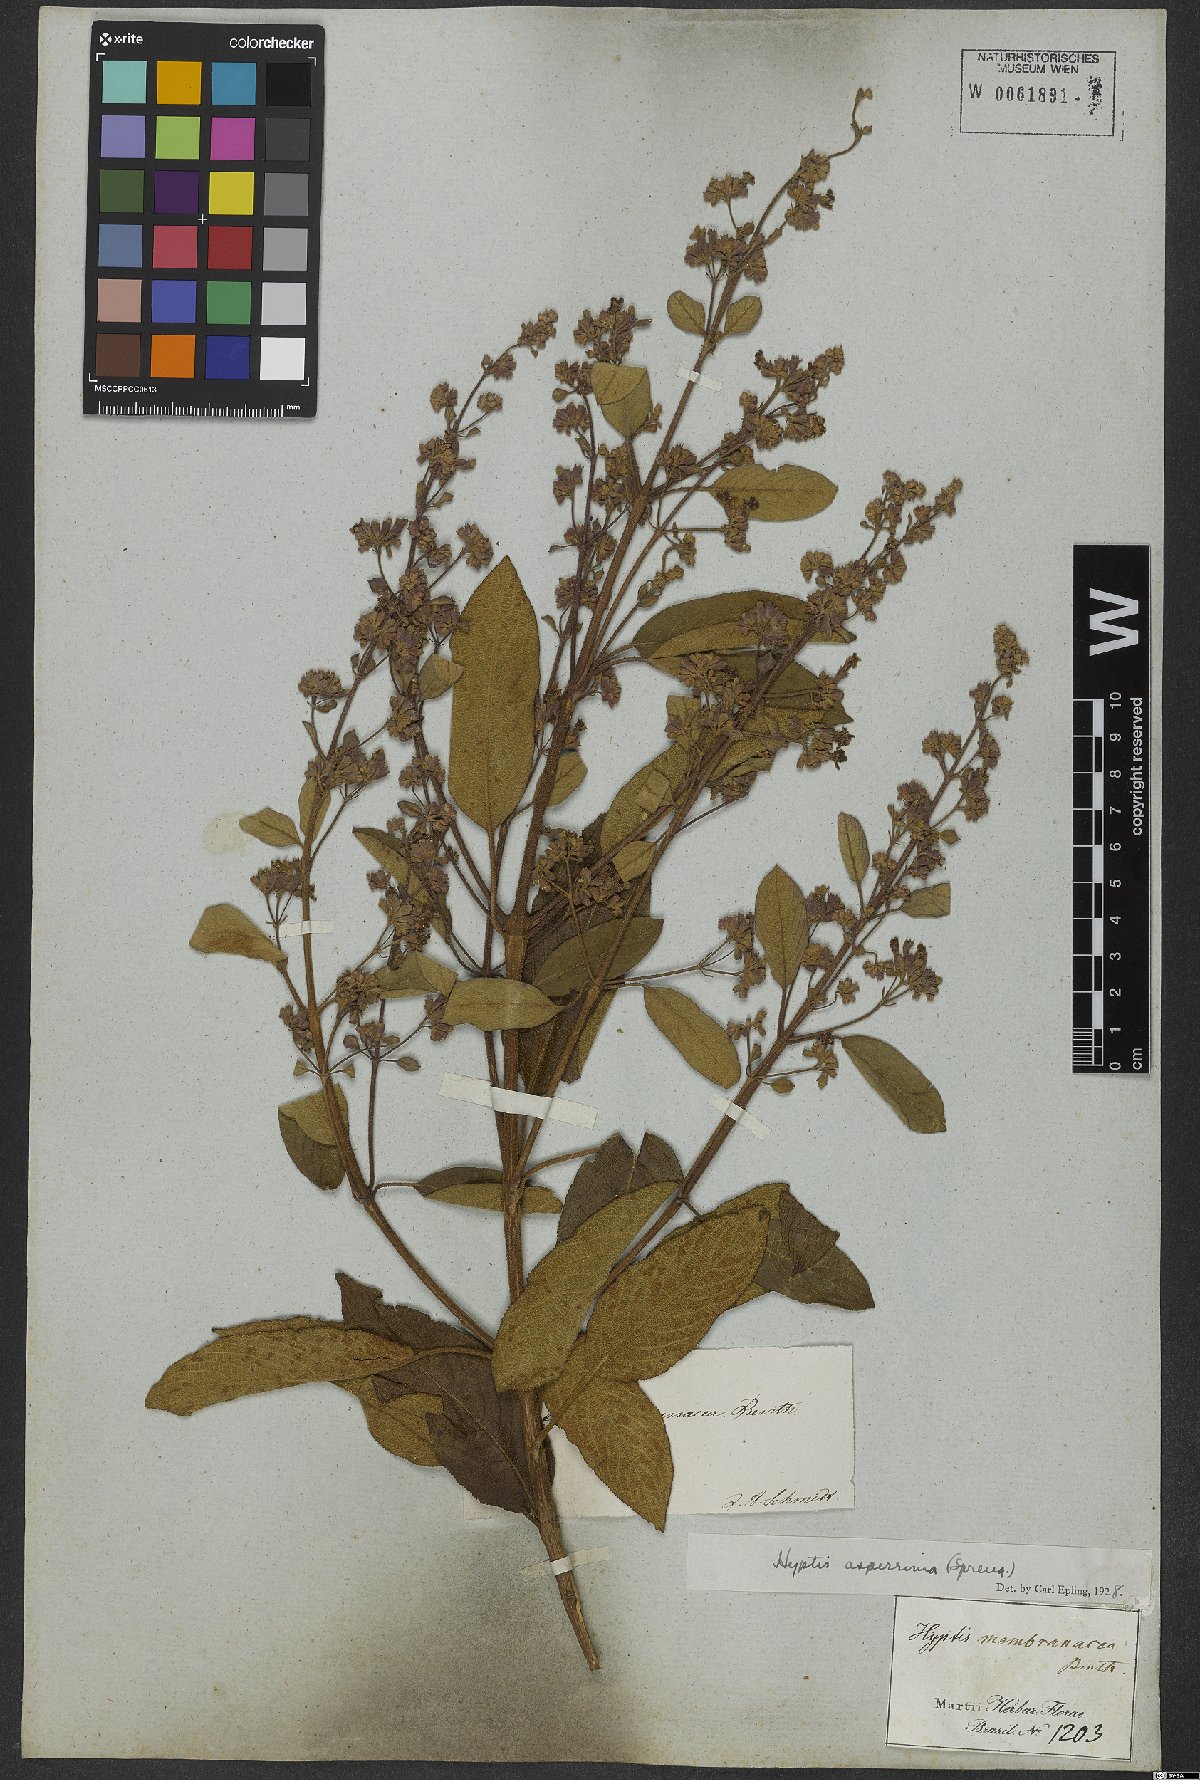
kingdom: Plantae
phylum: Tracheophyta
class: Magnoliopsida
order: Lamiales
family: Lamiaceae
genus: Hyptidendron
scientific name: Hyptidendron asperrimum
